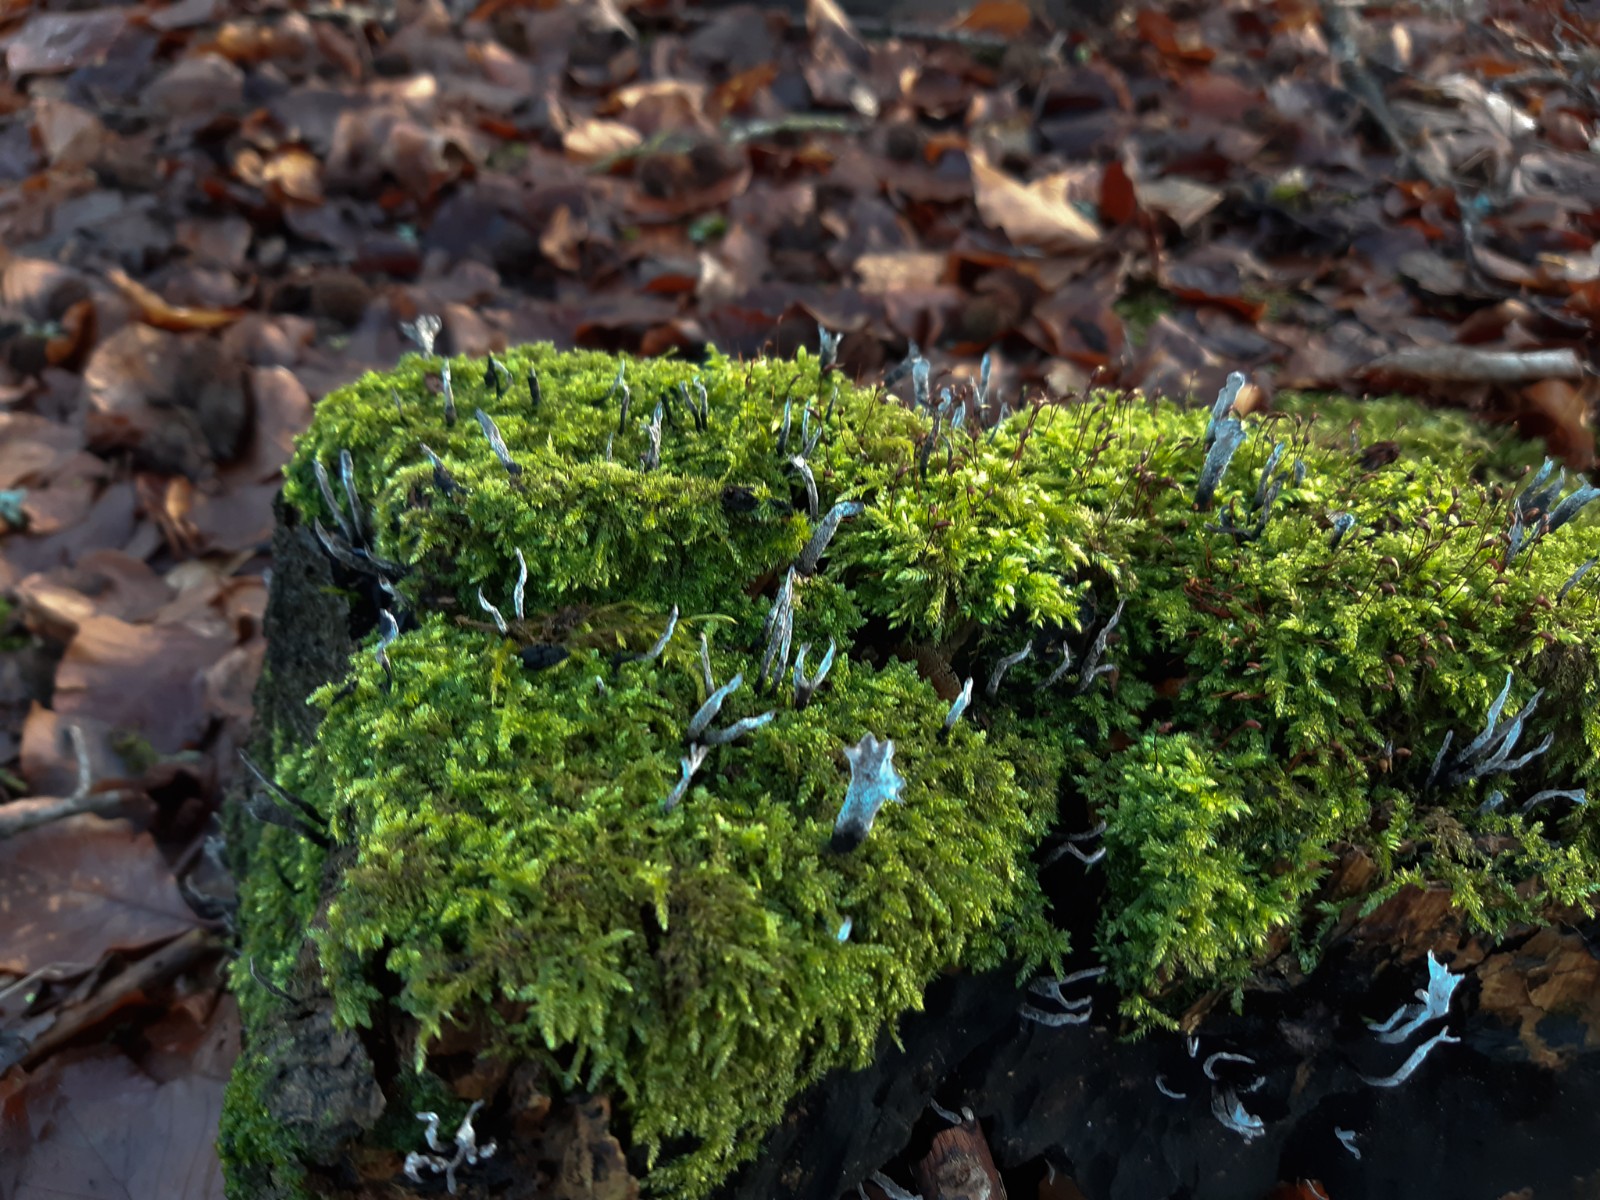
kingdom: Fungi
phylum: Ascomycota
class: Sordariomycetes
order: Xylariales
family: Xylariaceae
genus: Xylaria
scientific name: Xylaria hypoxylon
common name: grenet stødsvamp
